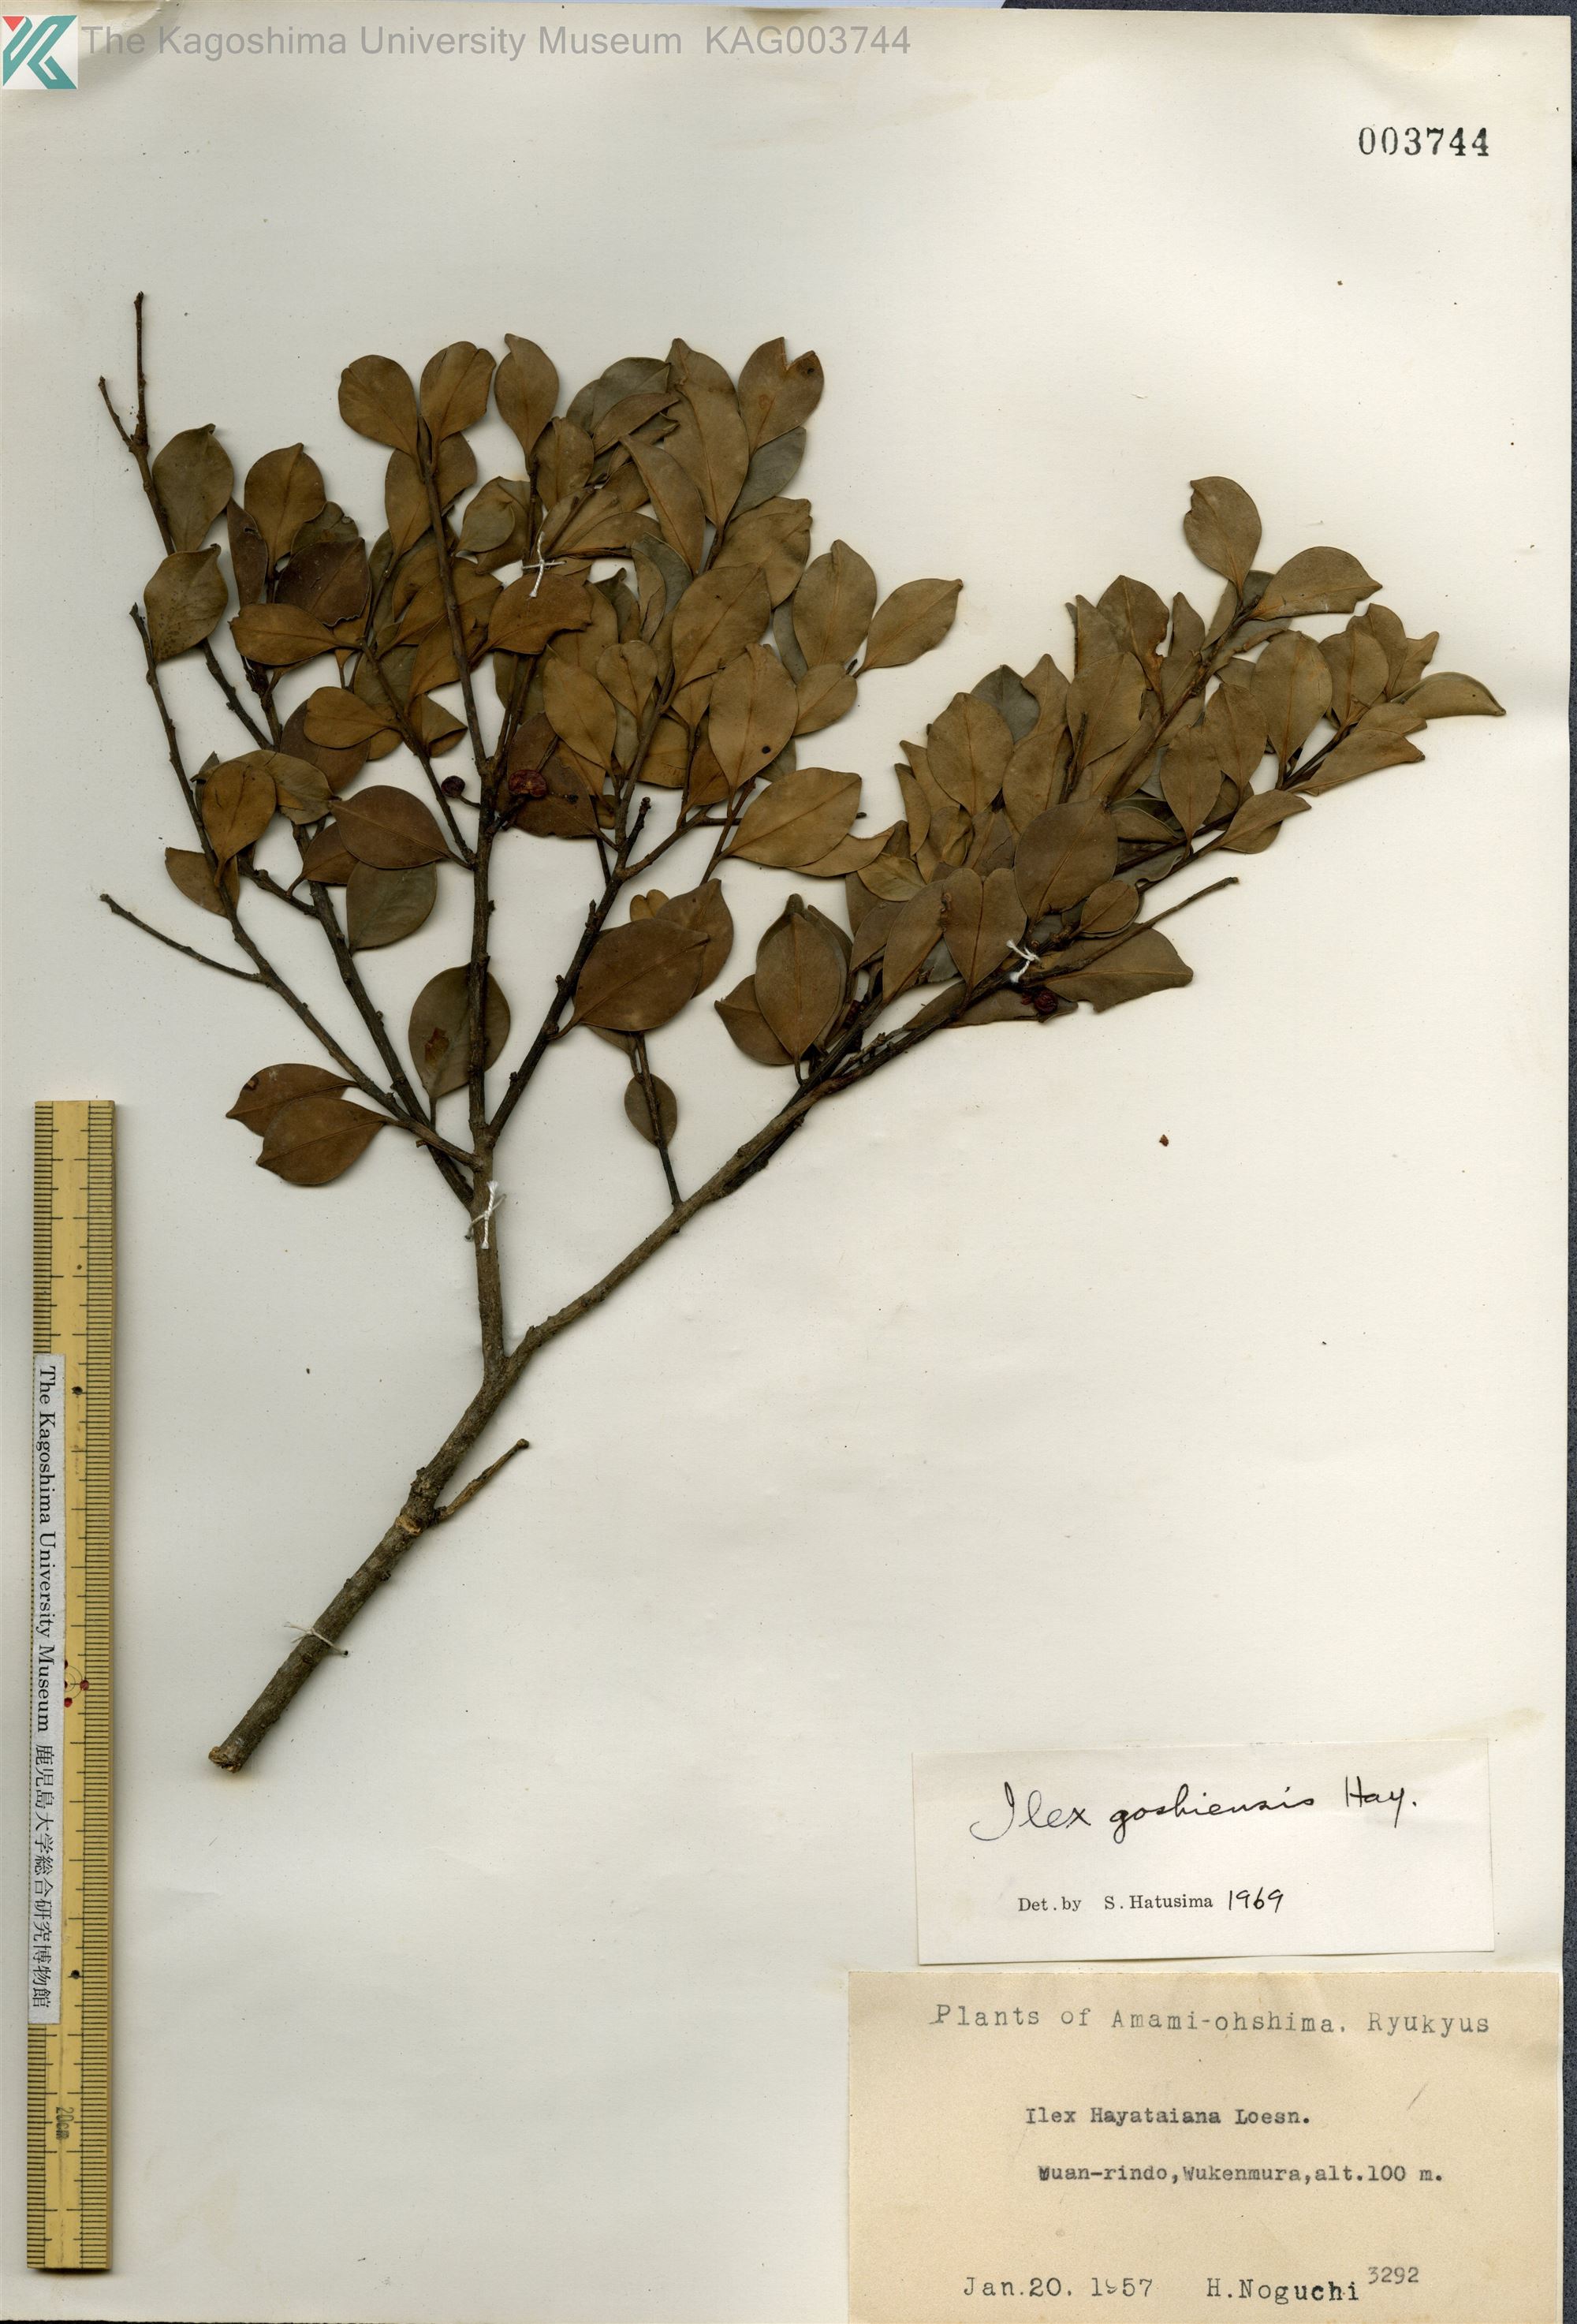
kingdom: Plantae
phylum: Tracheophyta
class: Magnoliopsida
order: Aquifoliales
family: Aquifoliaceae
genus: Ilex
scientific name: Ilex goshiensis
